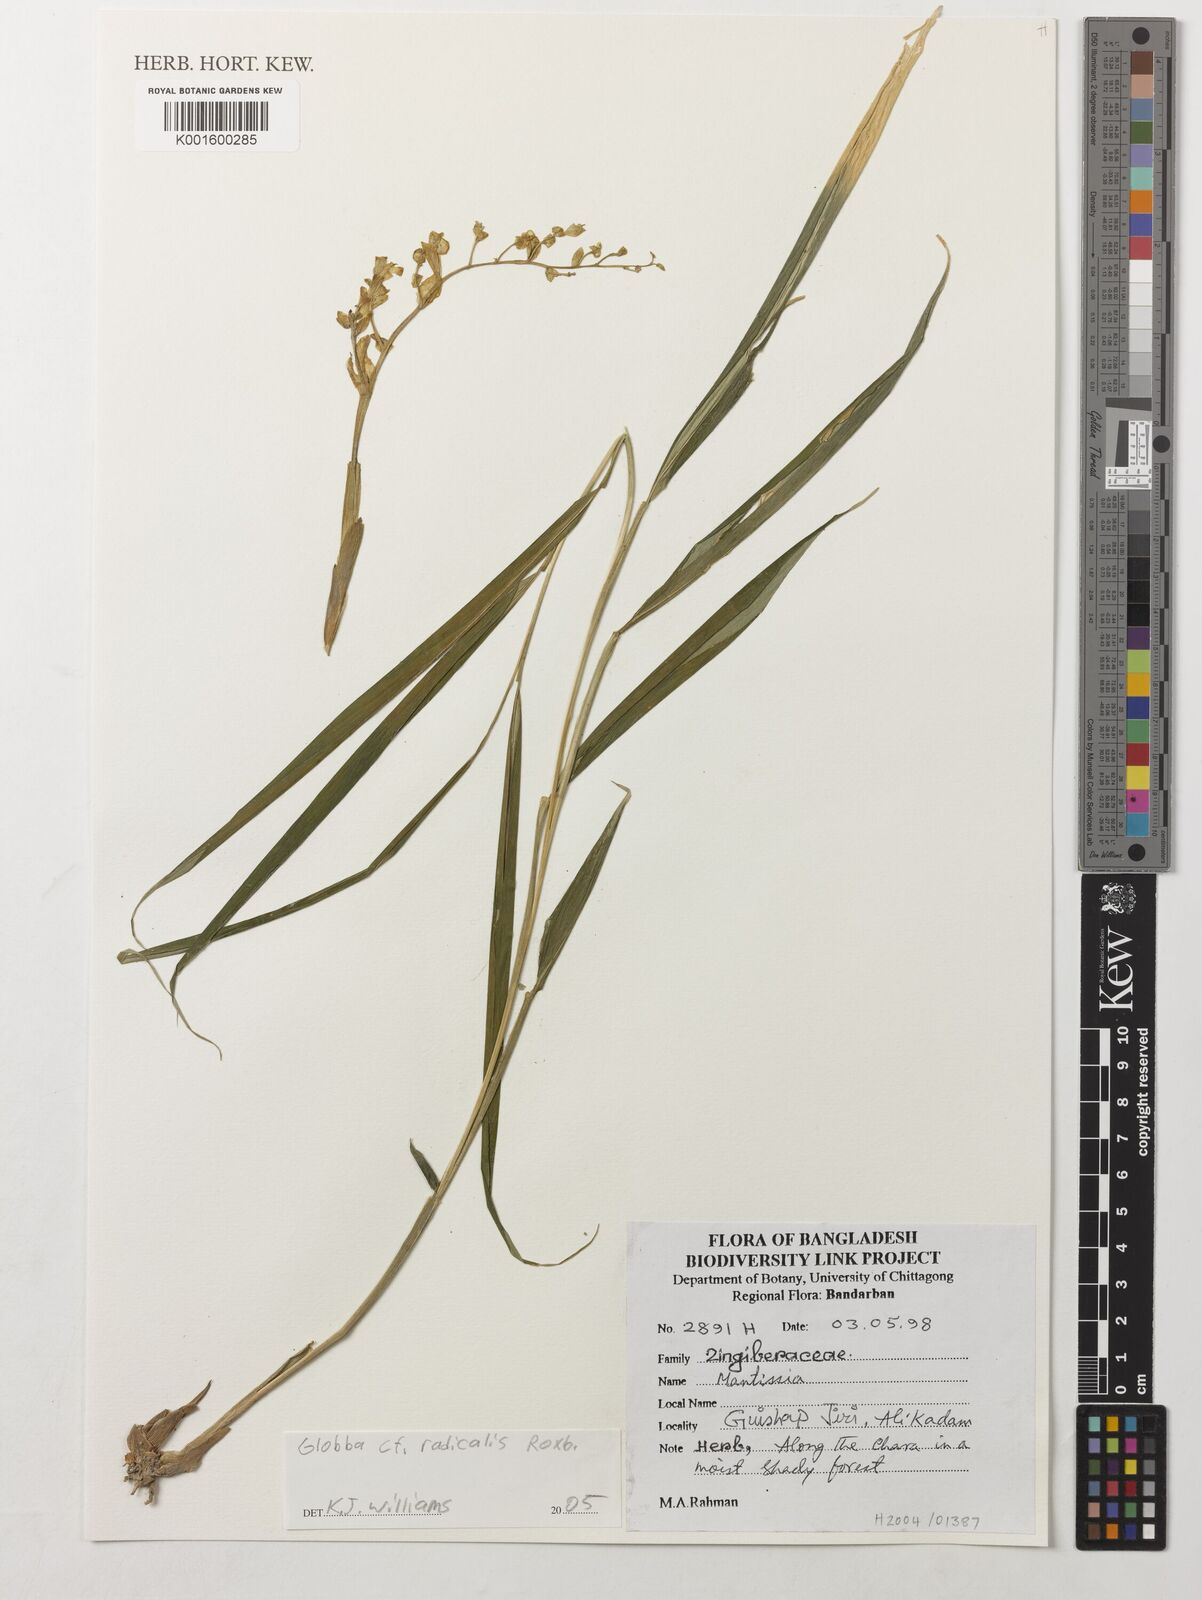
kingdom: Plantae
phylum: Tracheophyta
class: Liliopsida
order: Zingiberales
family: Zingiberaceae
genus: Globba
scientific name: Globba radicalis
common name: Dancing girl
